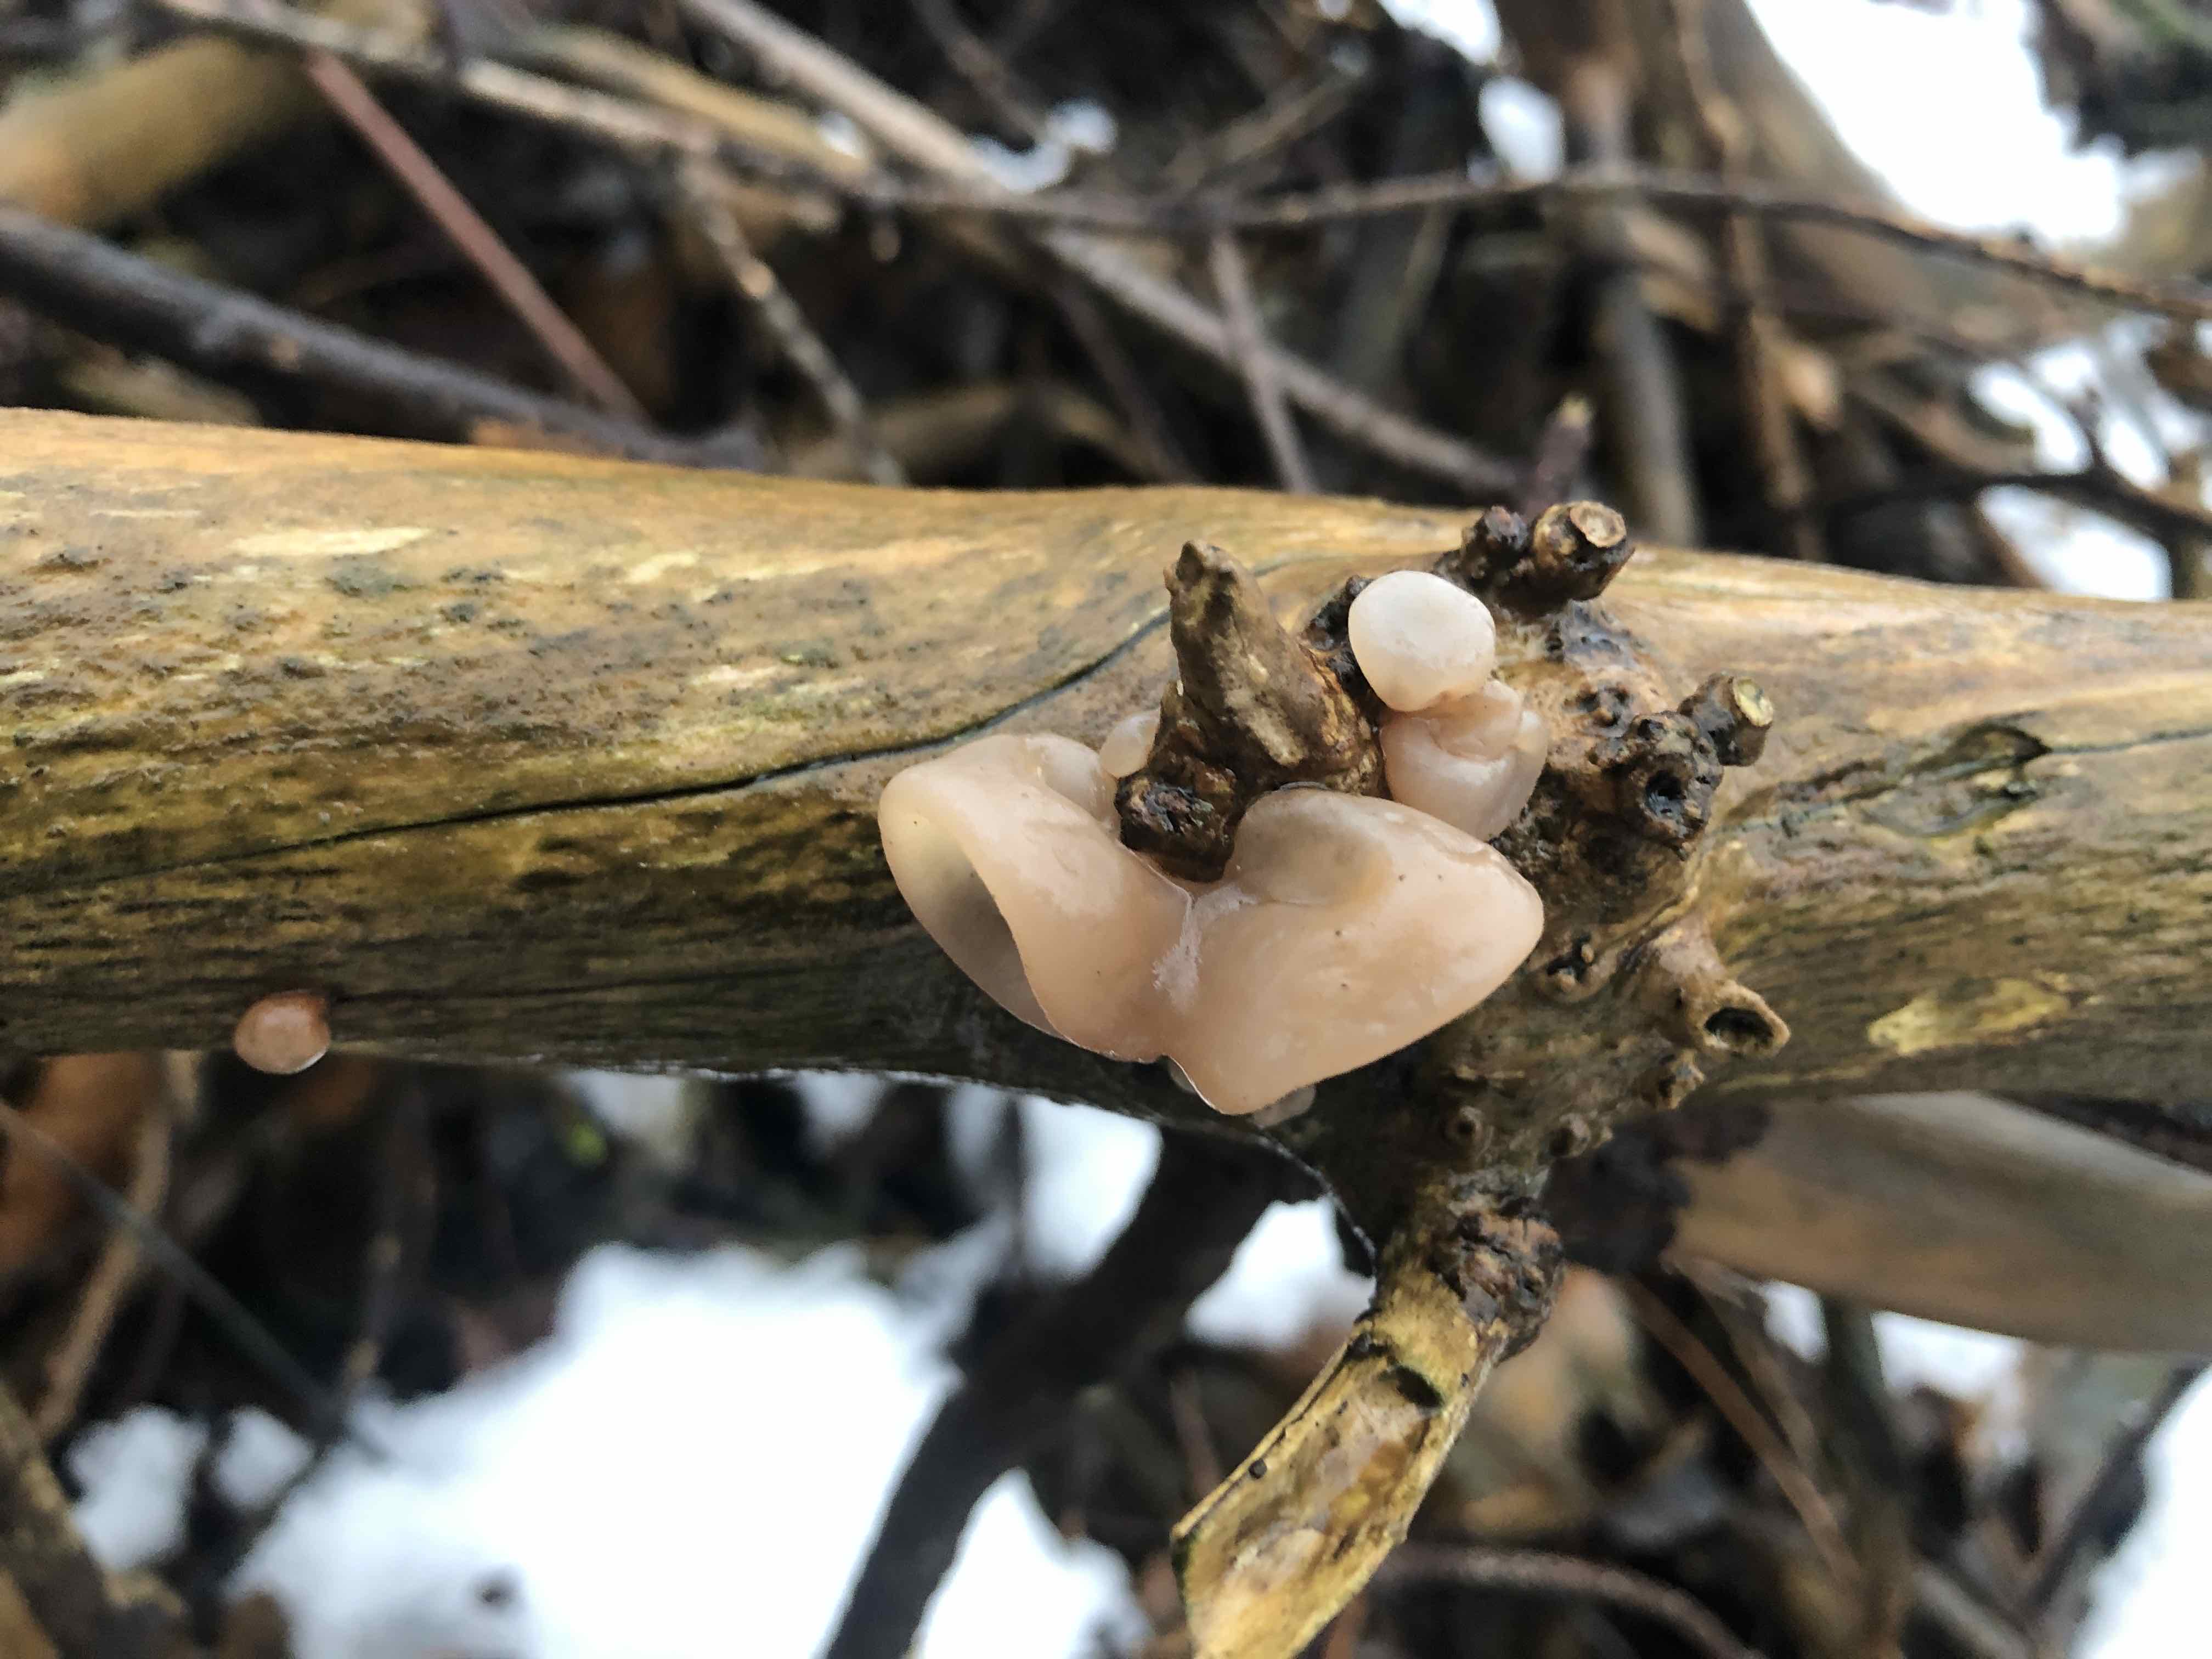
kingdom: Fungi
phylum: Basidiomycota
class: Agaricomycetes
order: Auriculariales
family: Auriculariaceae
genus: Auricularia
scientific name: Auricularia auricula-judae
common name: almindelig judasøre
